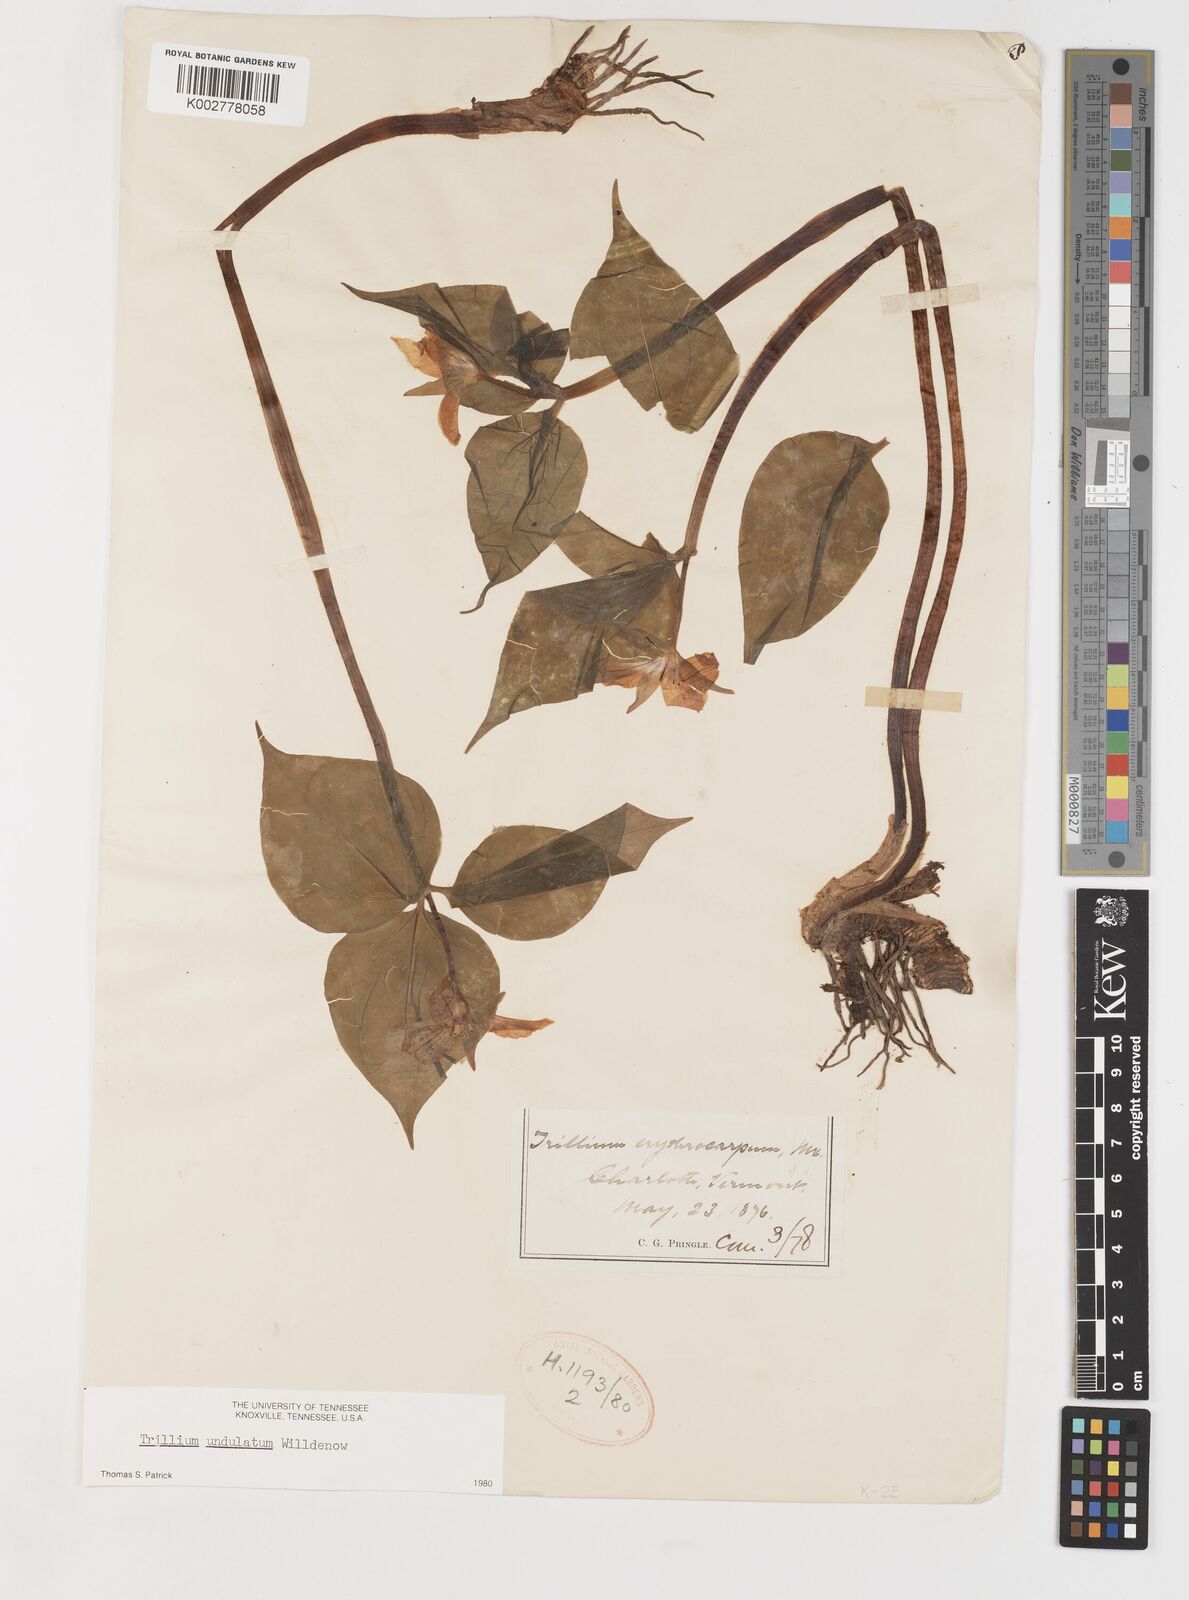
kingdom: Plantae
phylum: Tracheophyta
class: Liliopsida
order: Liliales
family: Melanthiaceae
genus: Trillium
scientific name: Trillium undulatum
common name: Paint trillium
